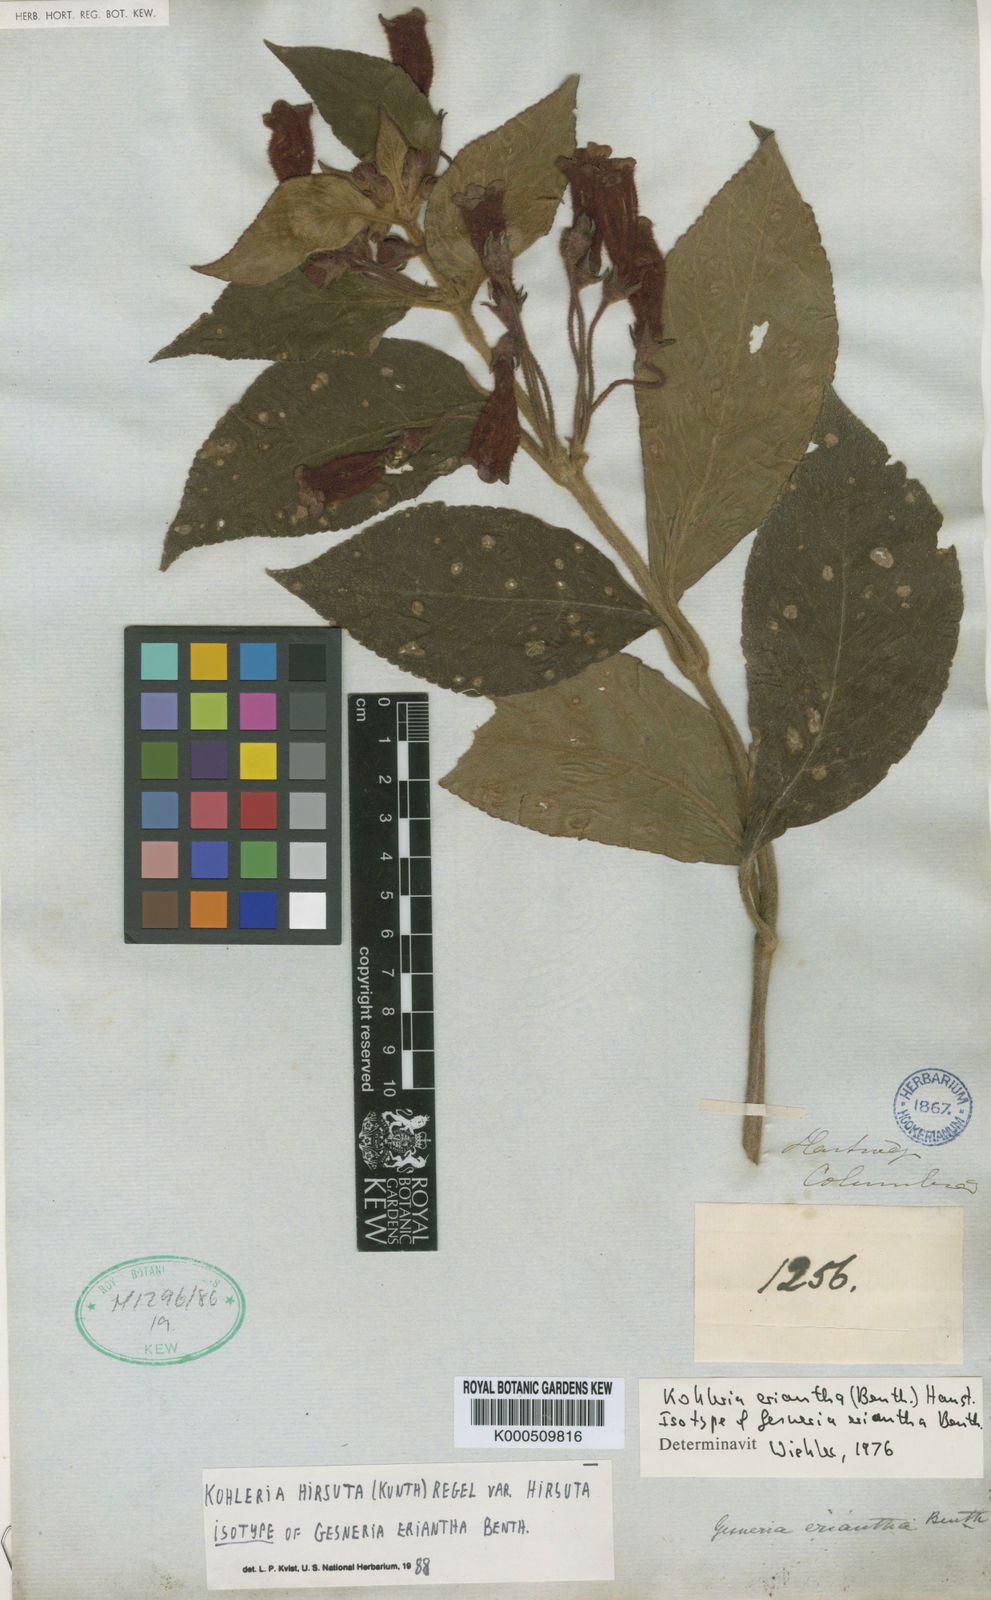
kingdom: Plantae
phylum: Tracheophyta
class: Magnoliopsida
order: Lamiales
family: Gesneriaceae
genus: Kohleria
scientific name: Kohleria hirsuta
